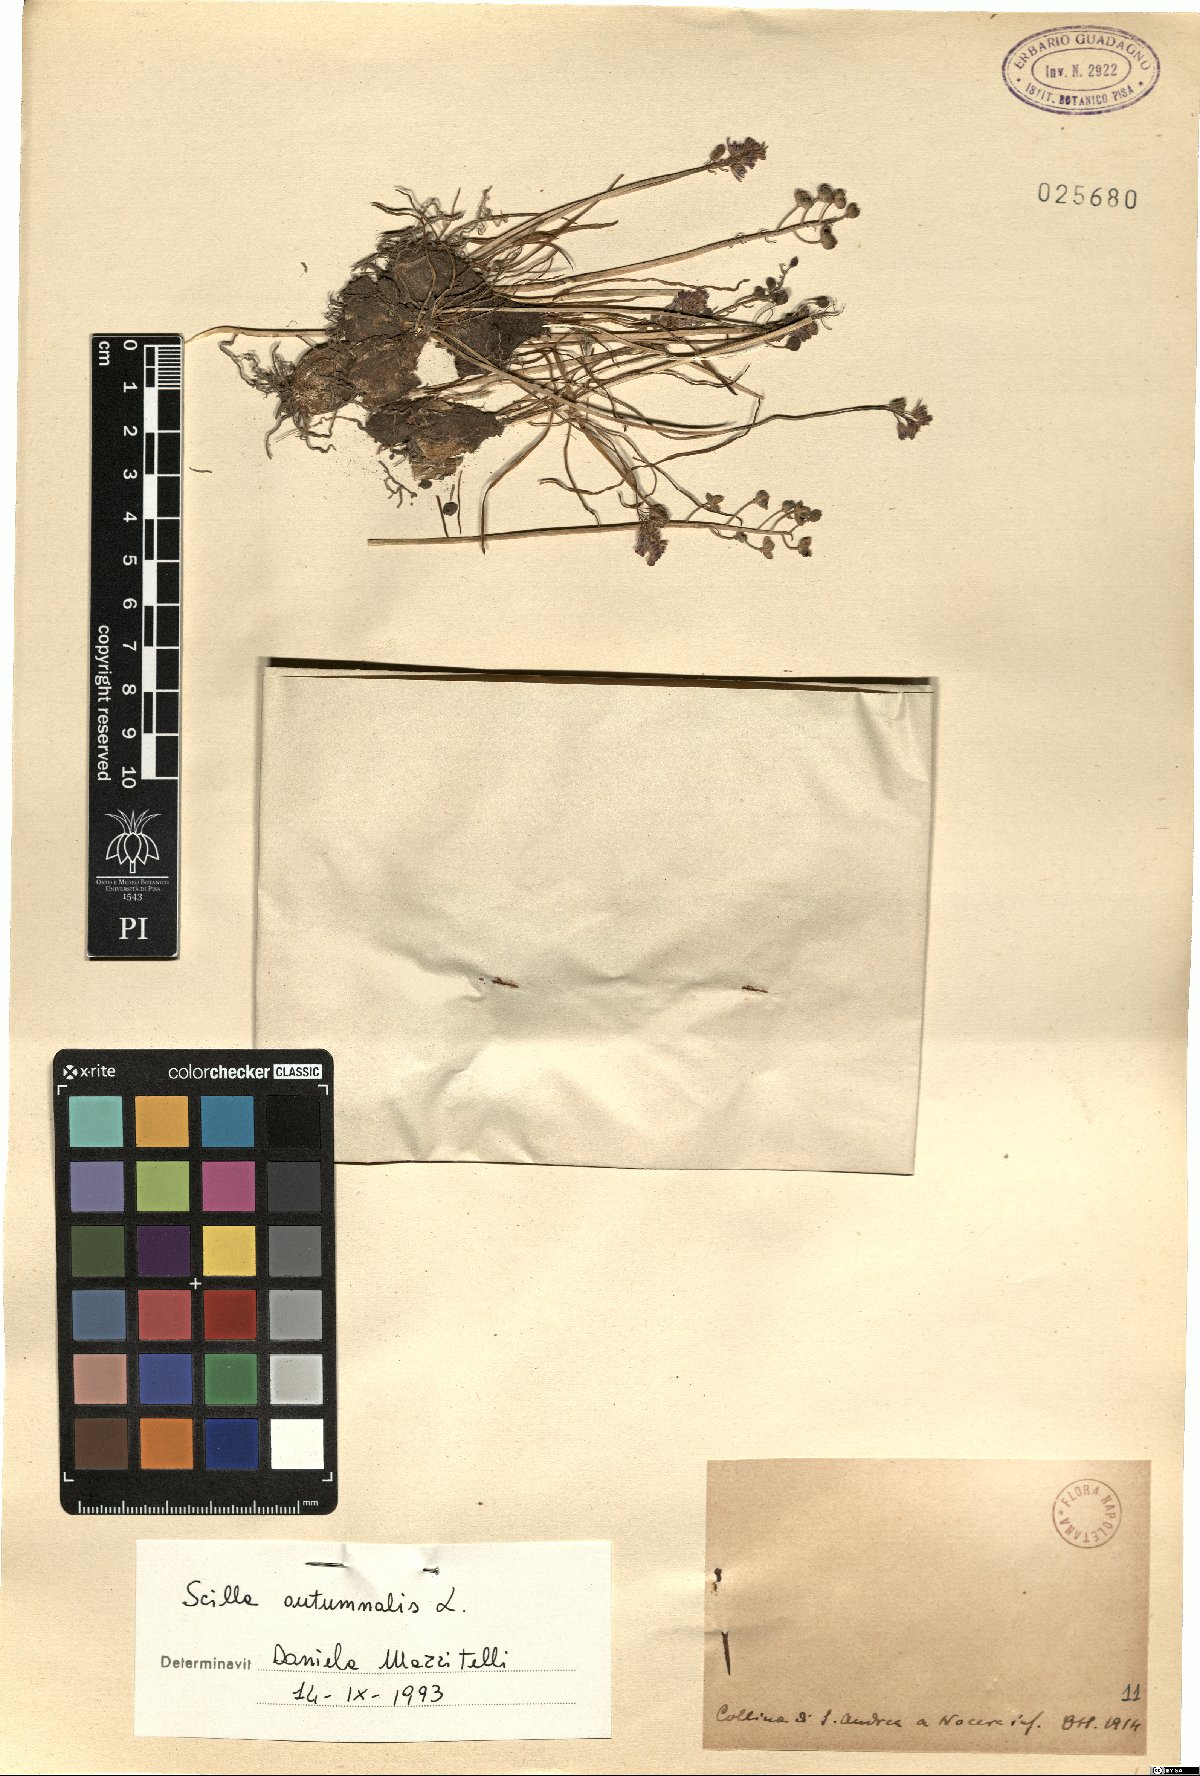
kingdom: Plantae
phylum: Tracheophyta
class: Liliopsida
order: Asparagales
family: Asparagaceae
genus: Prospero
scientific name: Prospero autumnale
